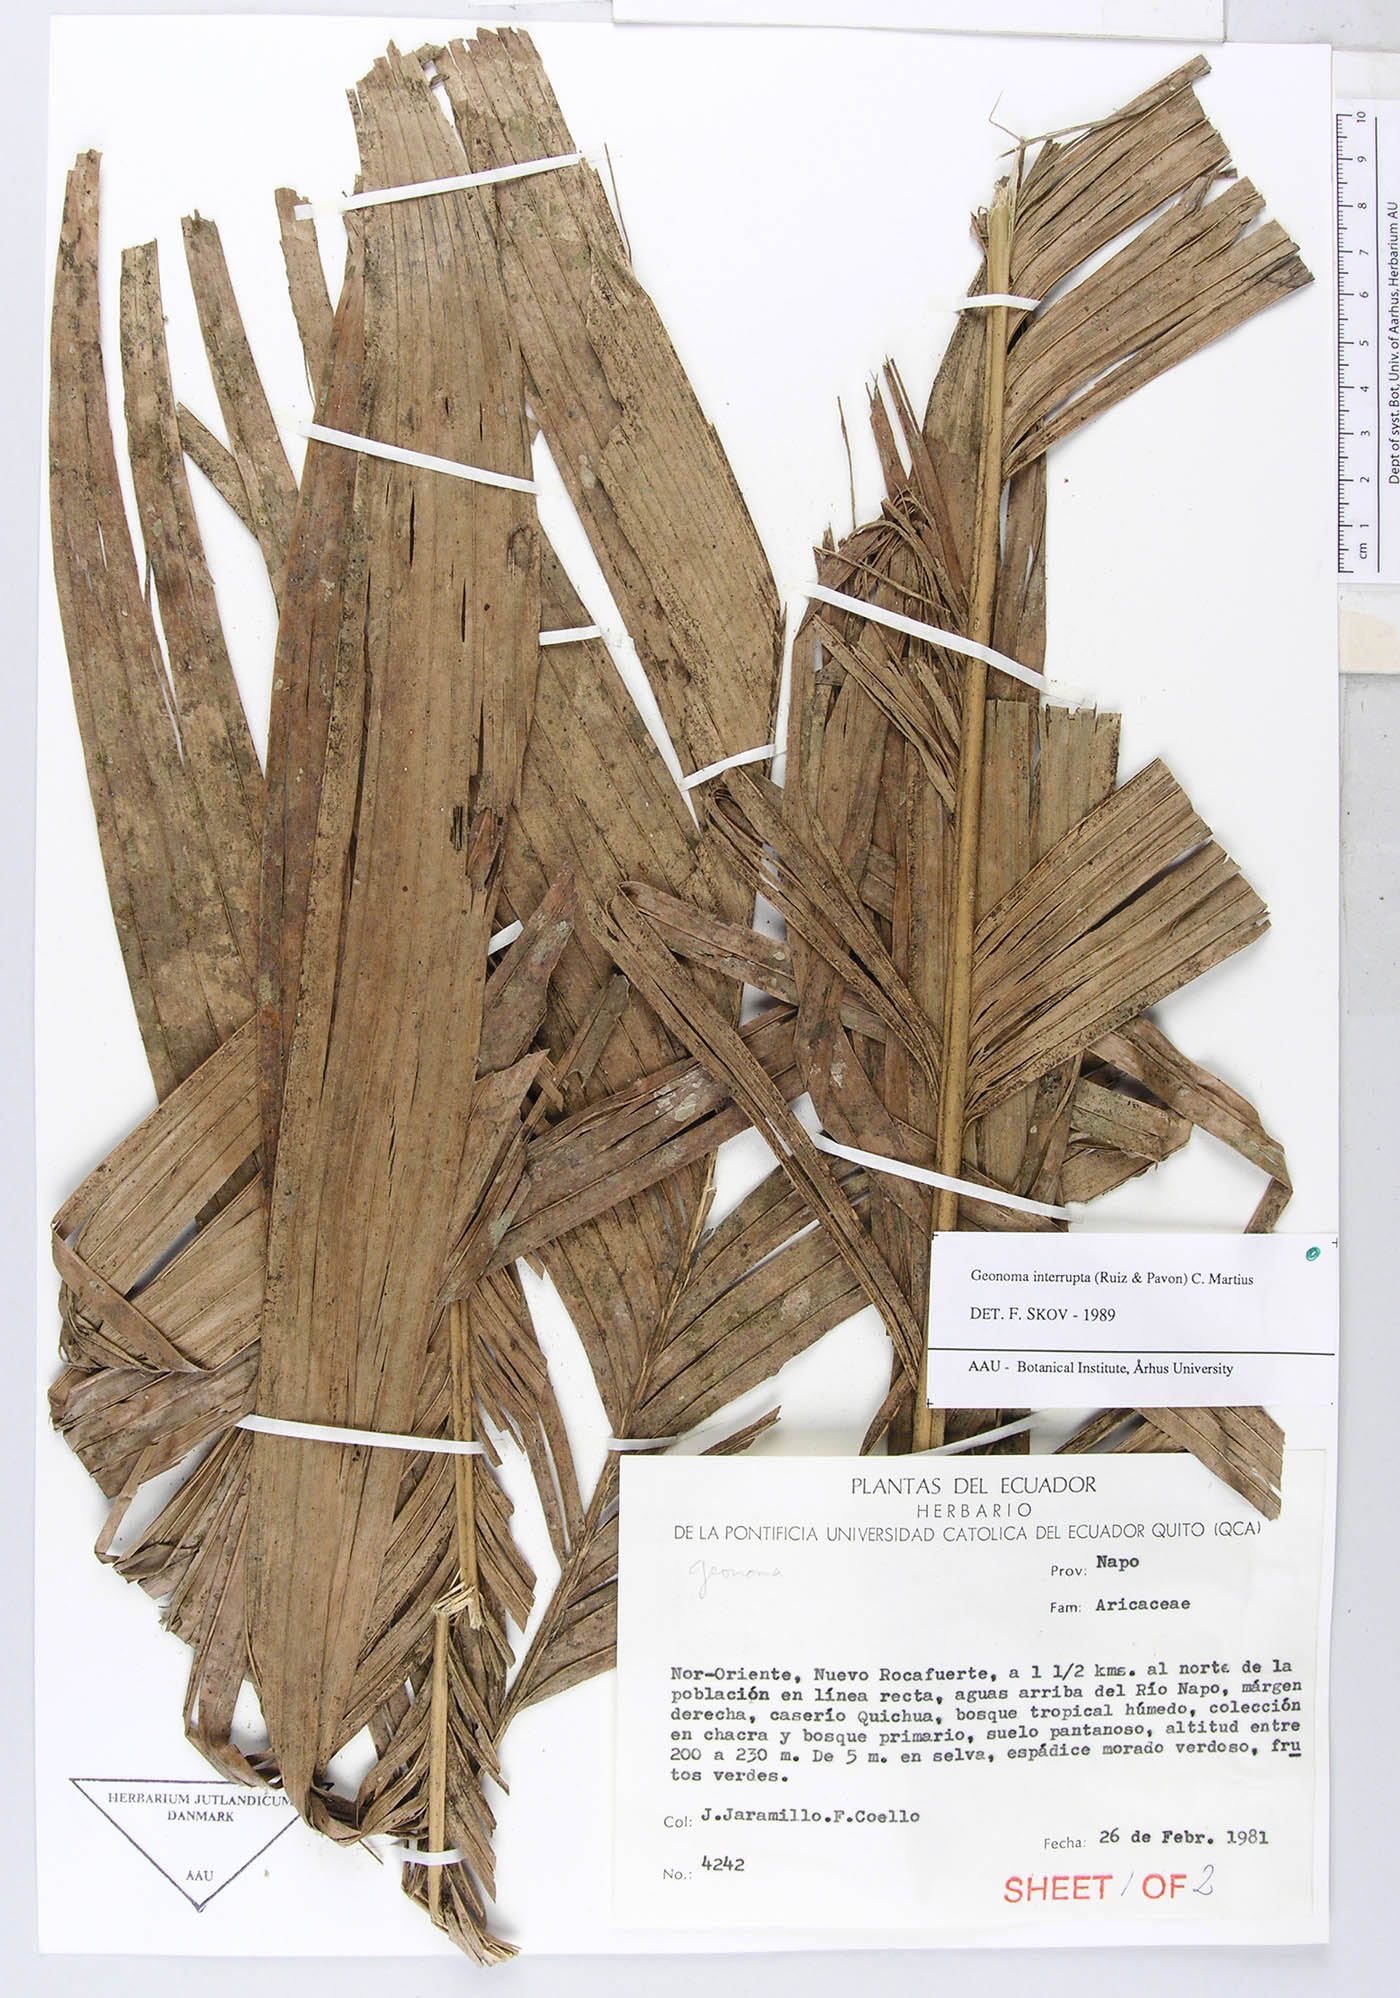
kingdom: Plantae
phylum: Tracheophyta
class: Liliopsida
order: Arecales
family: Arecaceae
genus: Geonoma
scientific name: Geonoma interrupta
